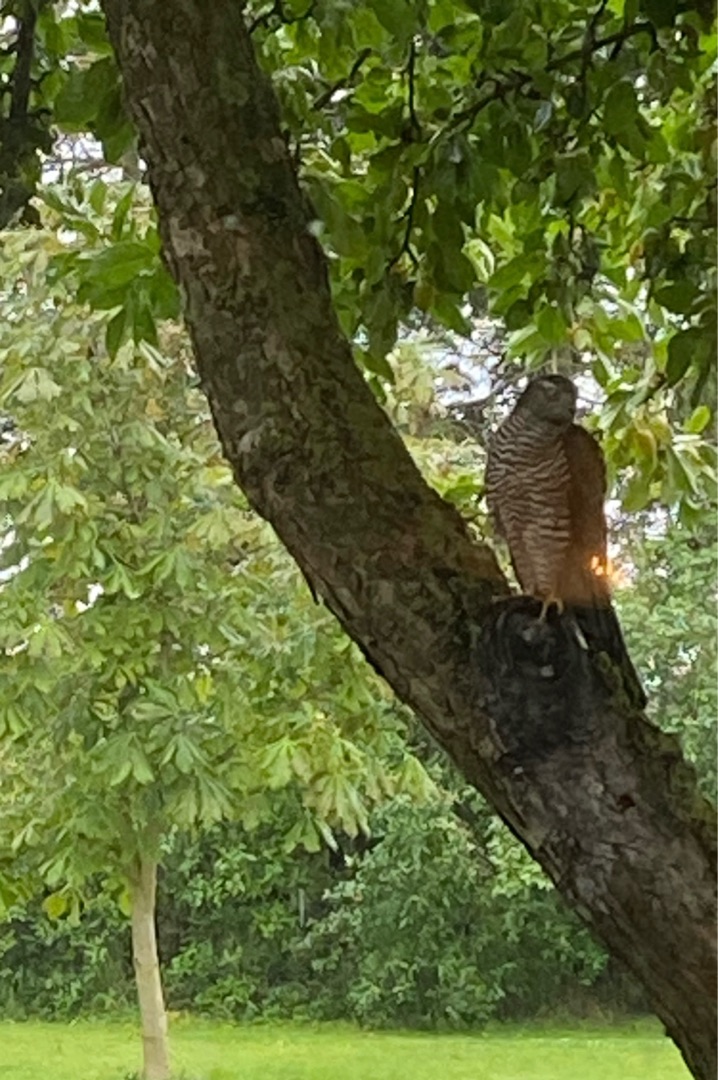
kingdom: Animalia
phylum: Chordata
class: Aves
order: Accipitriformes
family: Accipitridae
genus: Accipiter
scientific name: Accipiter nisus
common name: Spurvehøg
